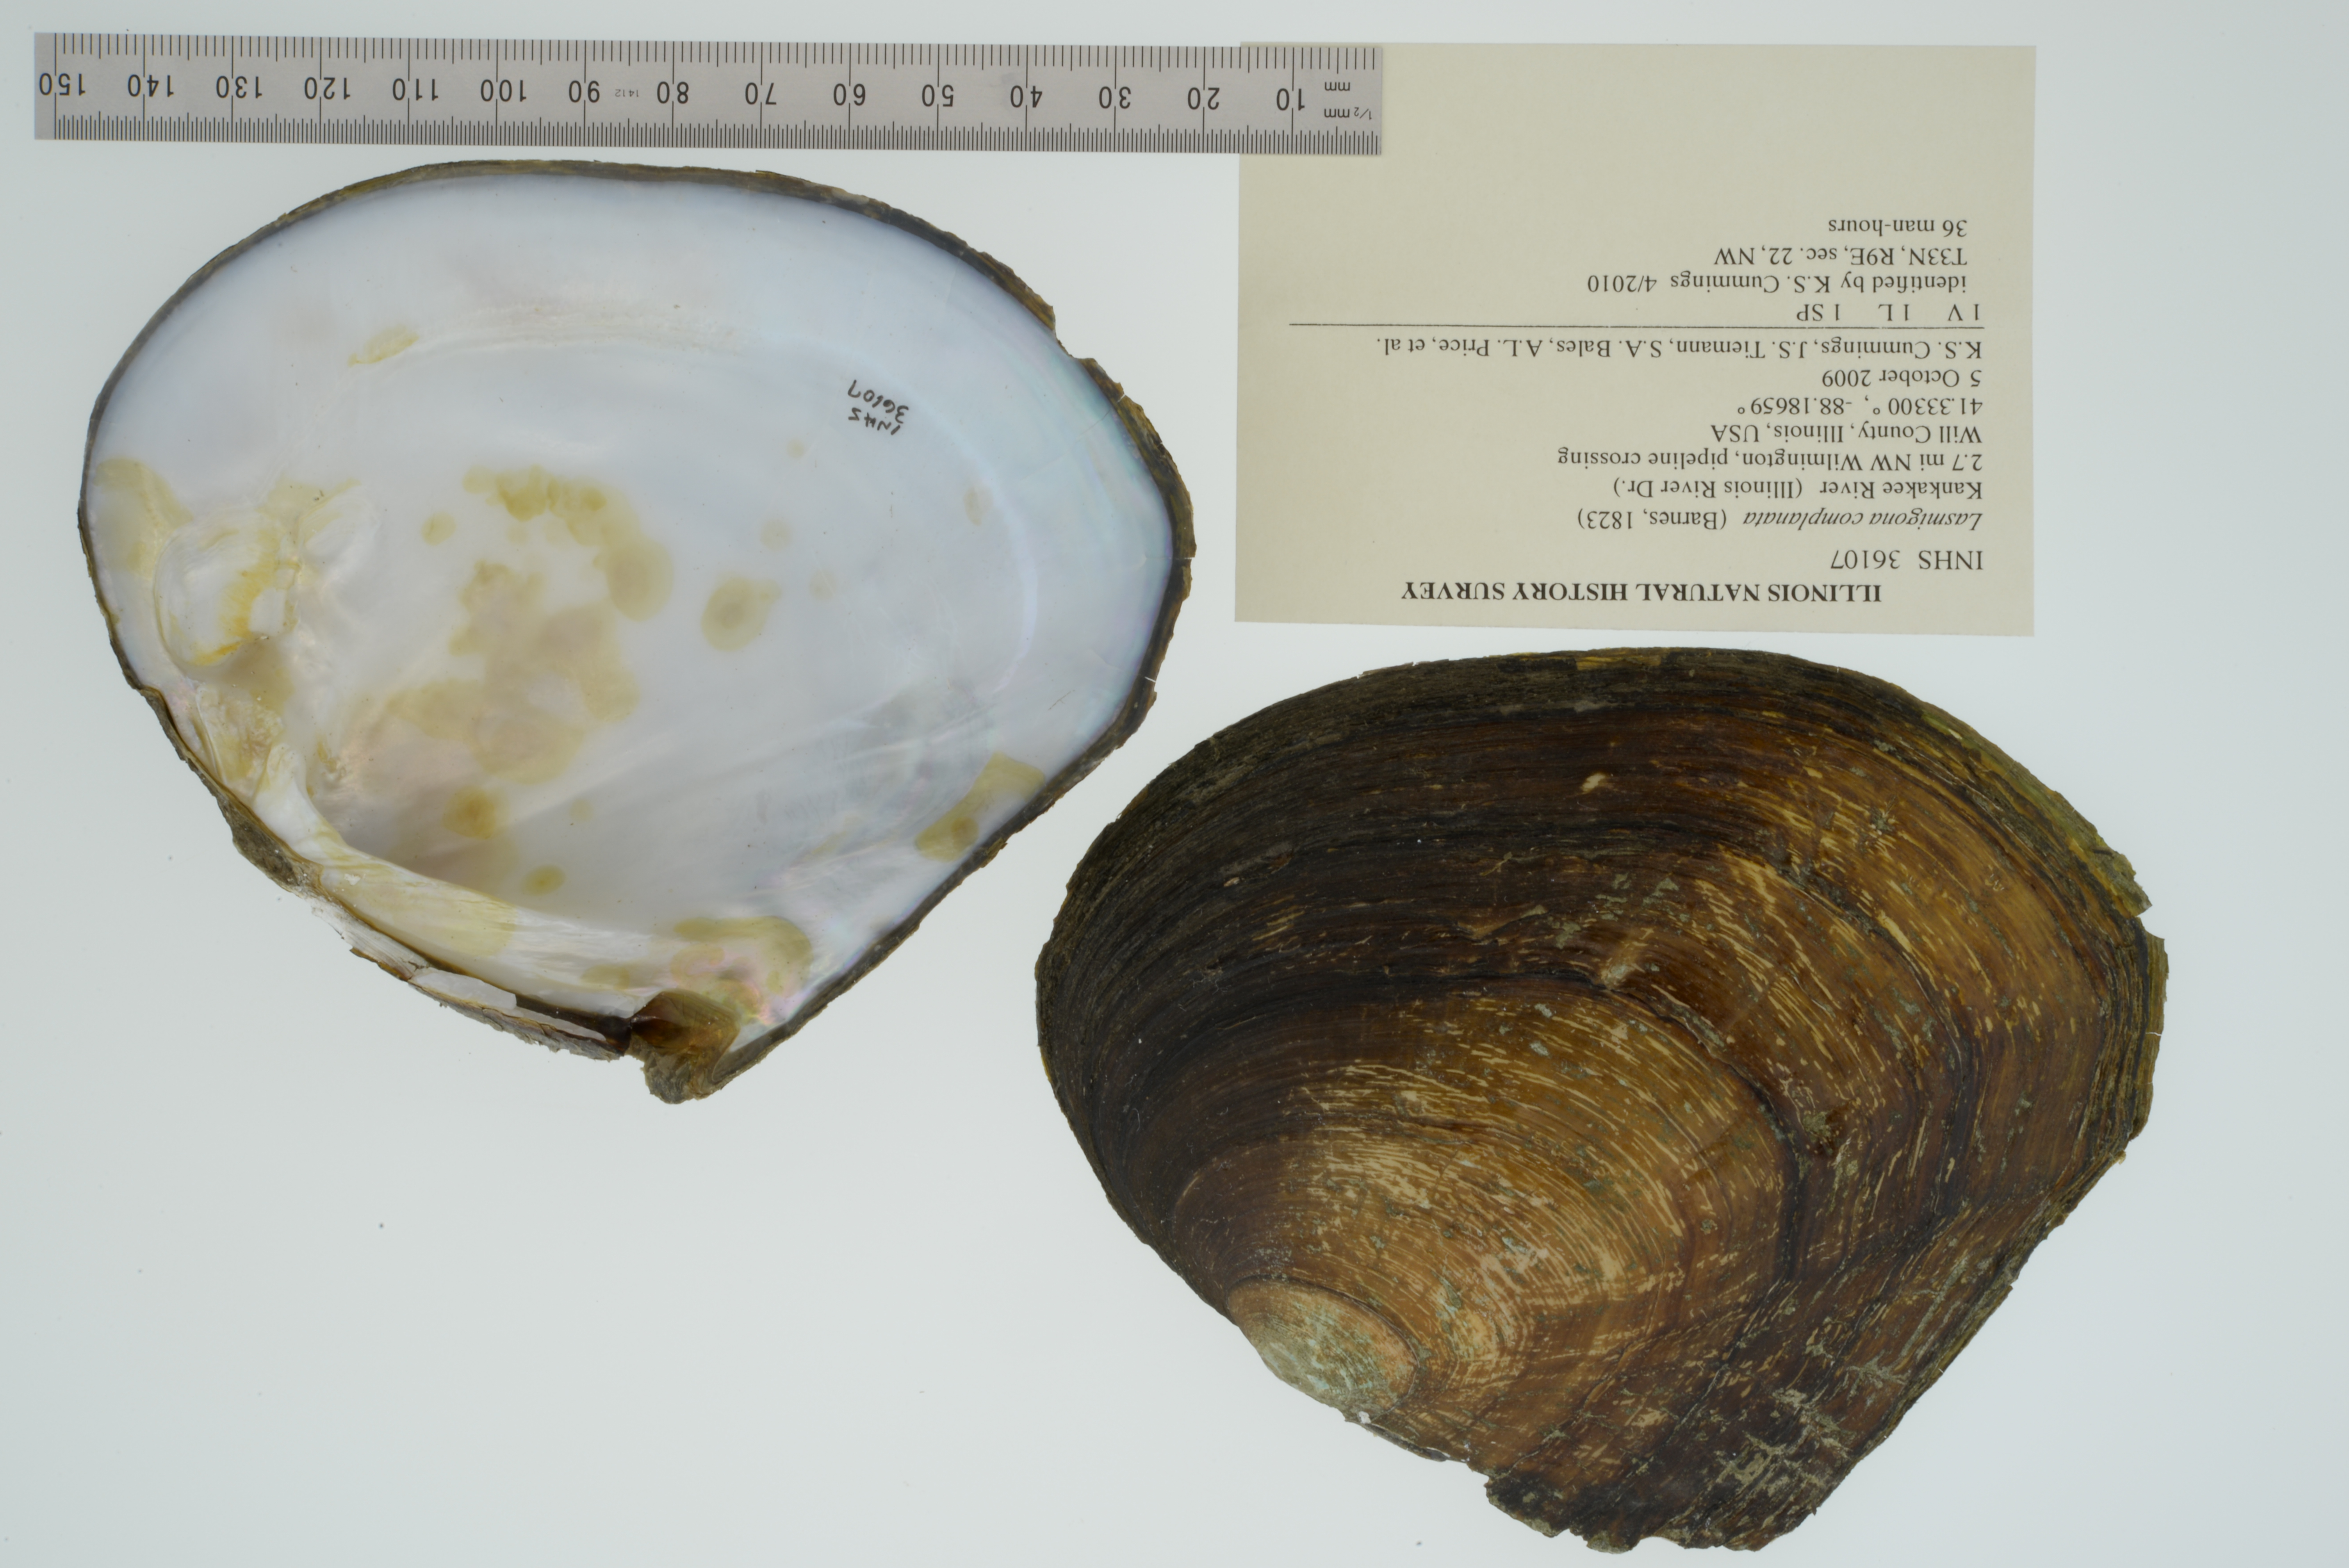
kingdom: Animalia
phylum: Mollusca
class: Bivalvia
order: Unionida
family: Unionidae
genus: Lasmigona
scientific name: Lasmigona complanata
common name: White heelsplitter
